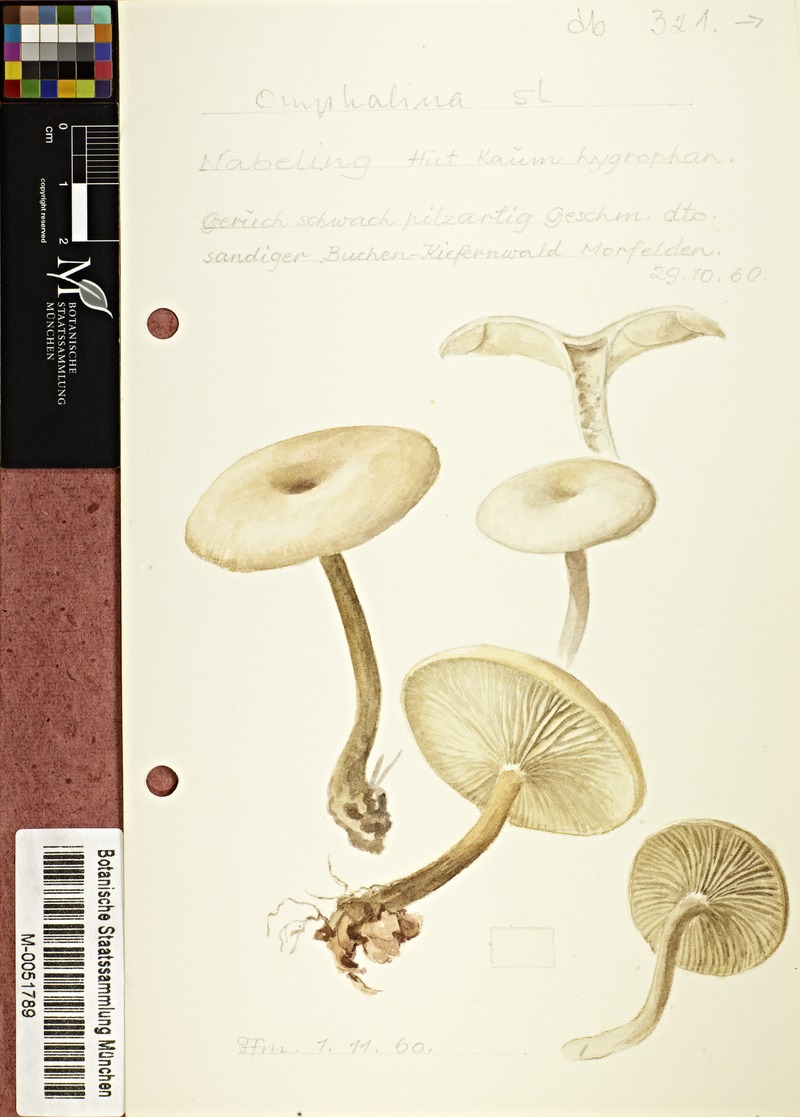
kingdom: Fungi
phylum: Basidiomycota
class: Agaricomycetes
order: Agaricales
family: Tricholomataceae
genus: Omphalina
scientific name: Omphalina
